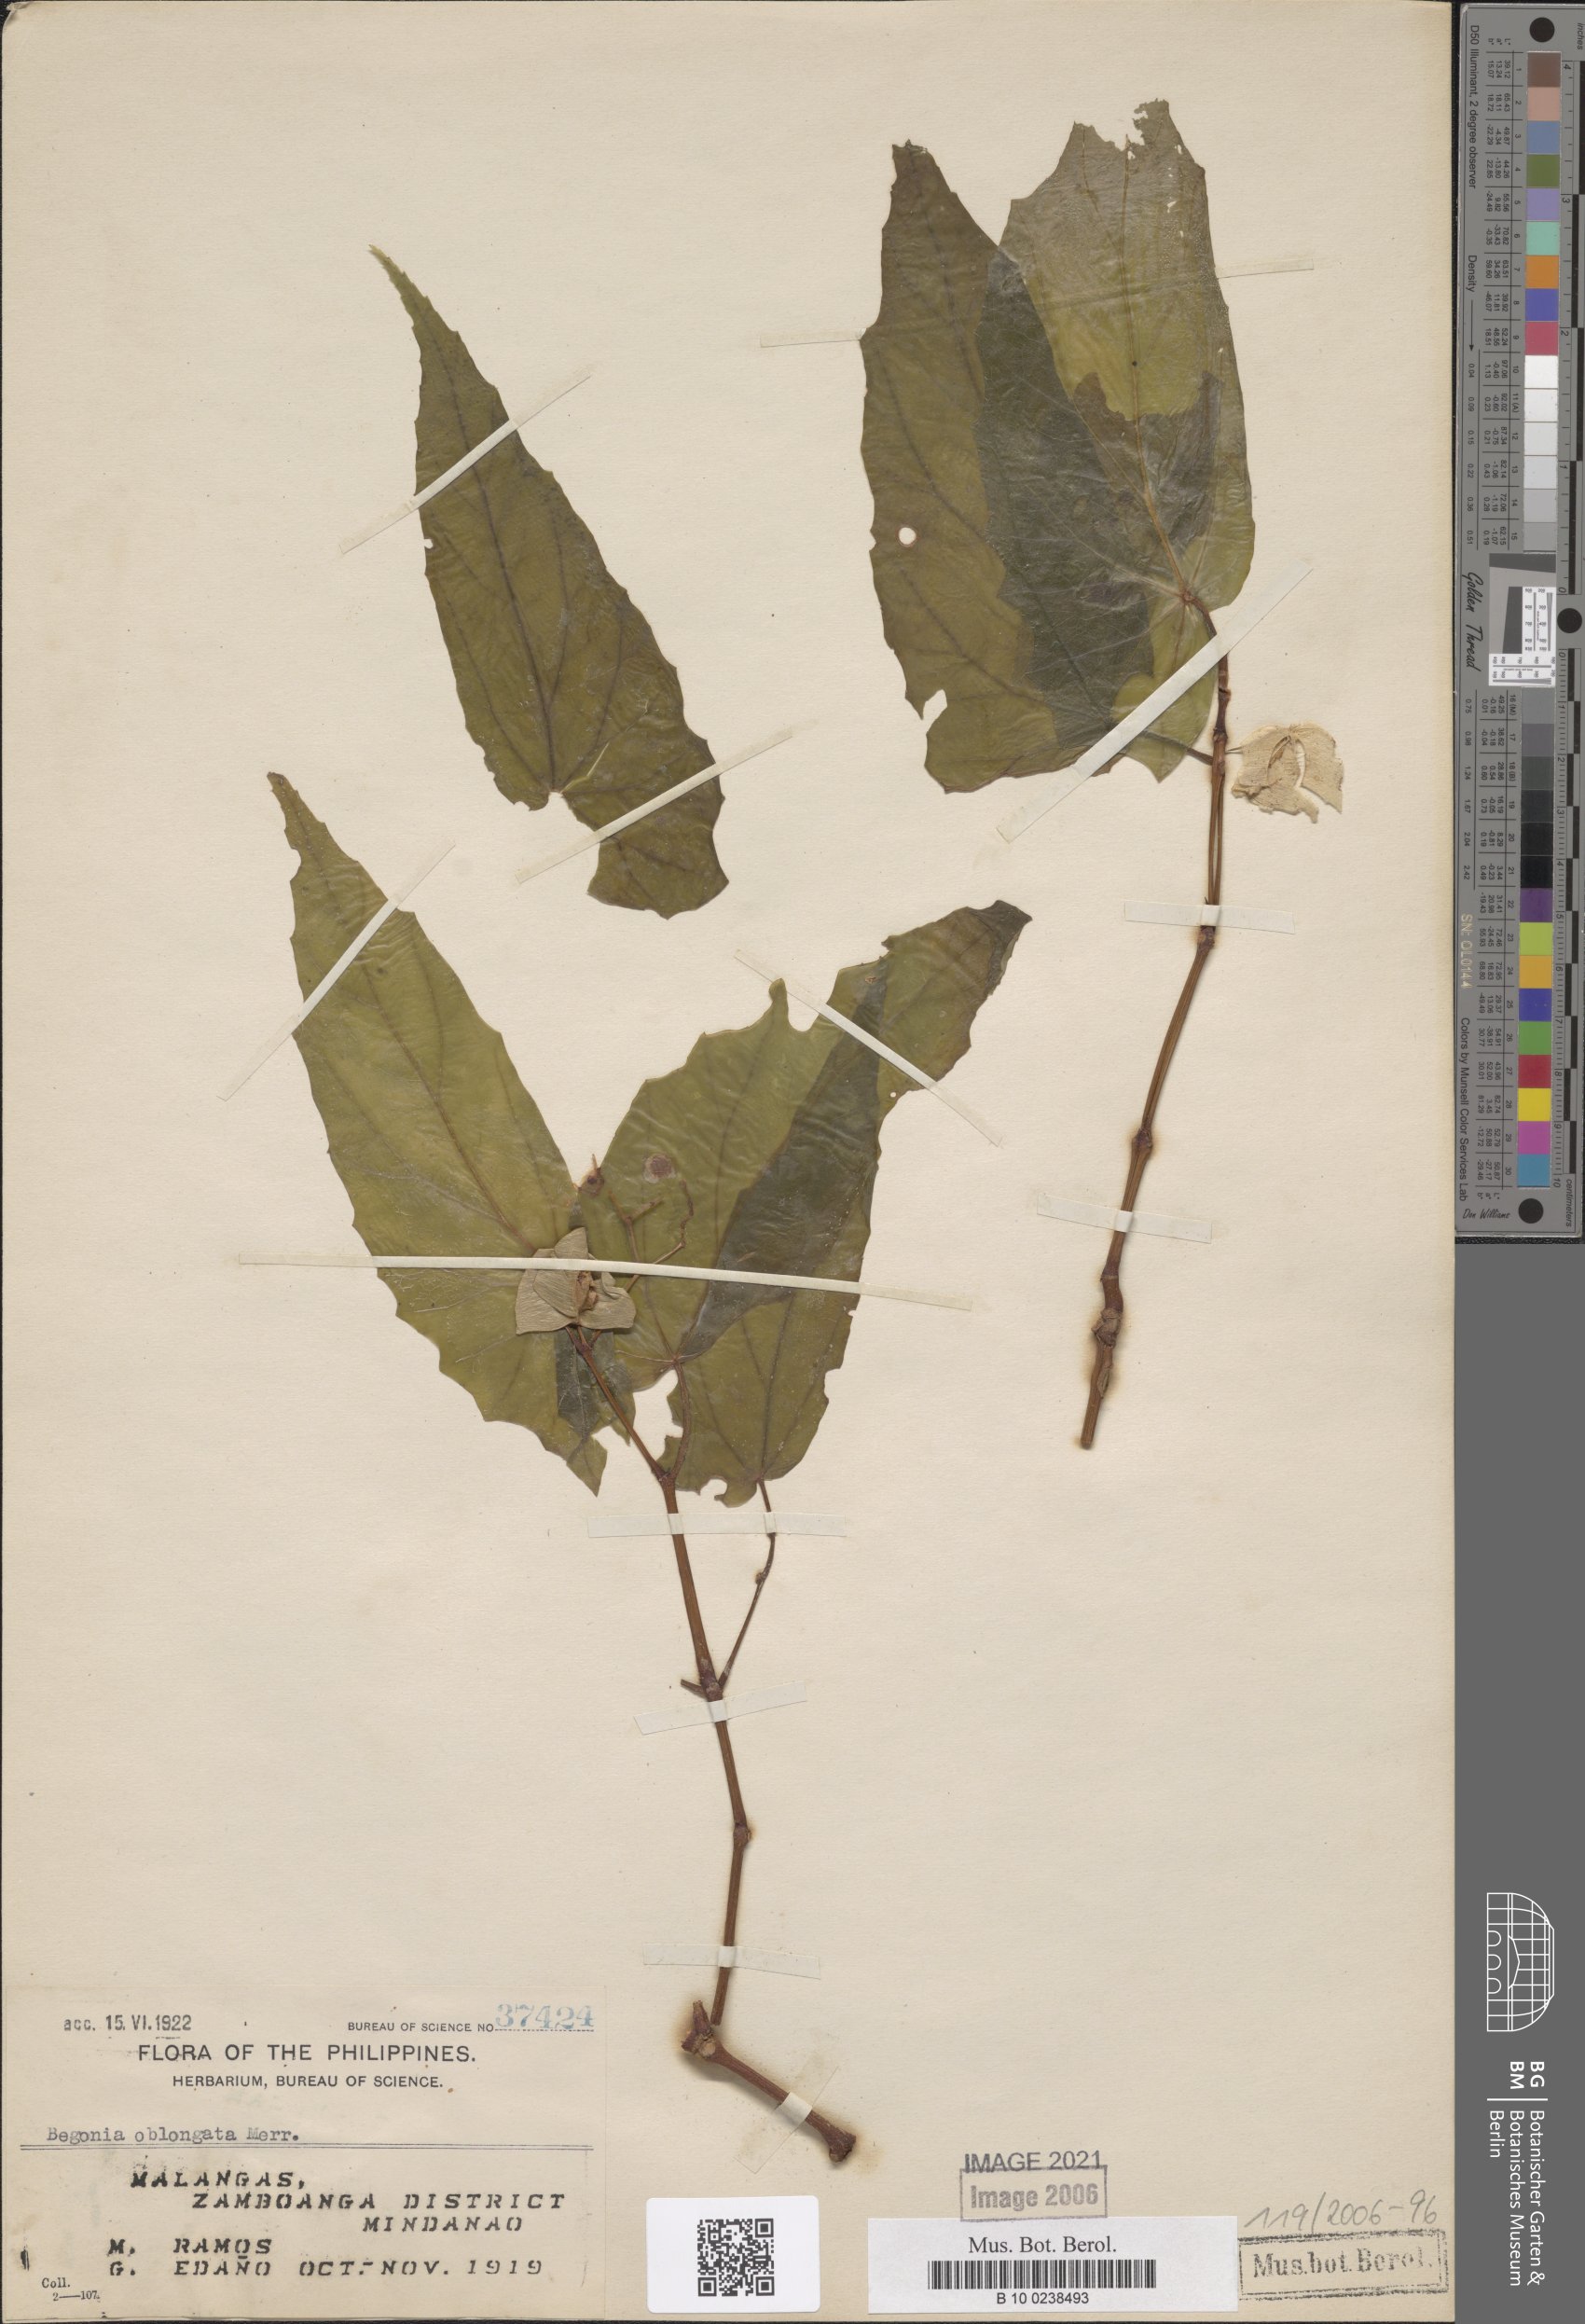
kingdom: Plantae
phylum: Tracheophyta
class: Magnoliopsida
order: Cucurbitales
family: Begoniaceae
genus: Begonia
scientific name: Begonia oblongata
